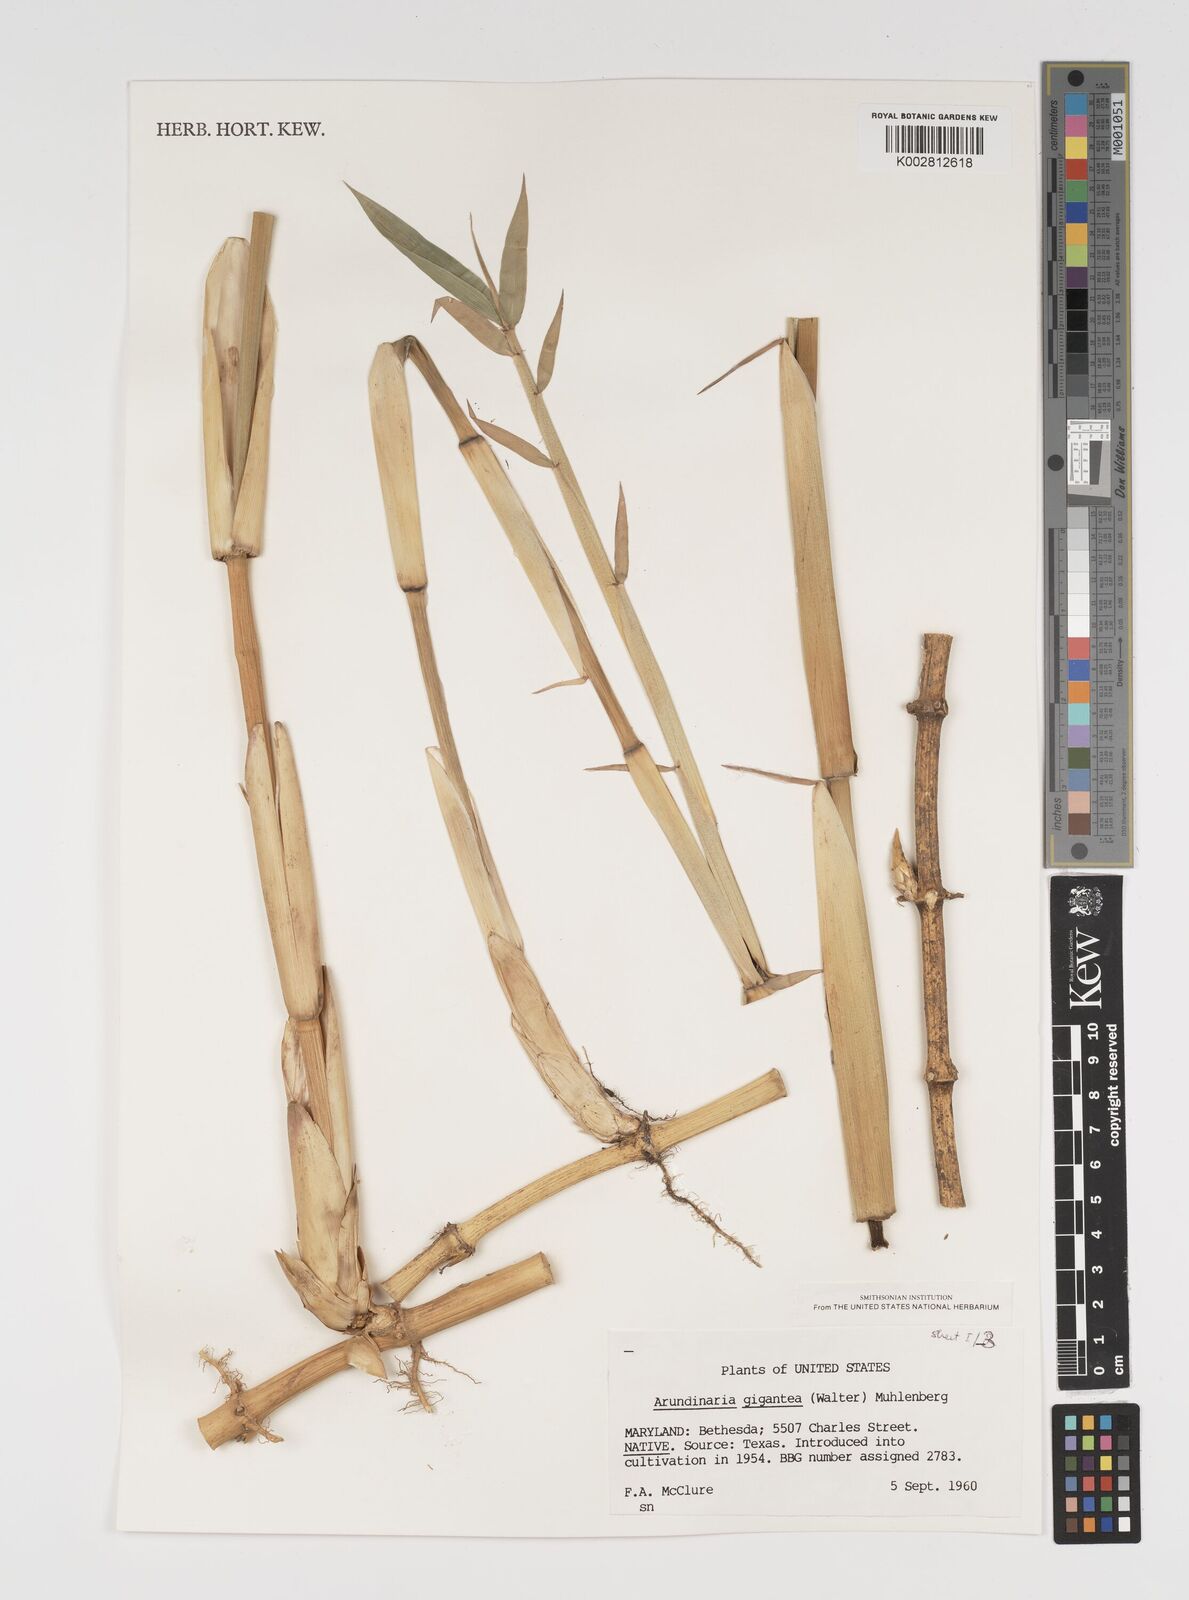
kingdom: Plantae
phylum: Tracheophyta
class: Liliopsida
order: Poales
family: Poaceae
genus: Arundinaria
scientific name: Arundinaria
